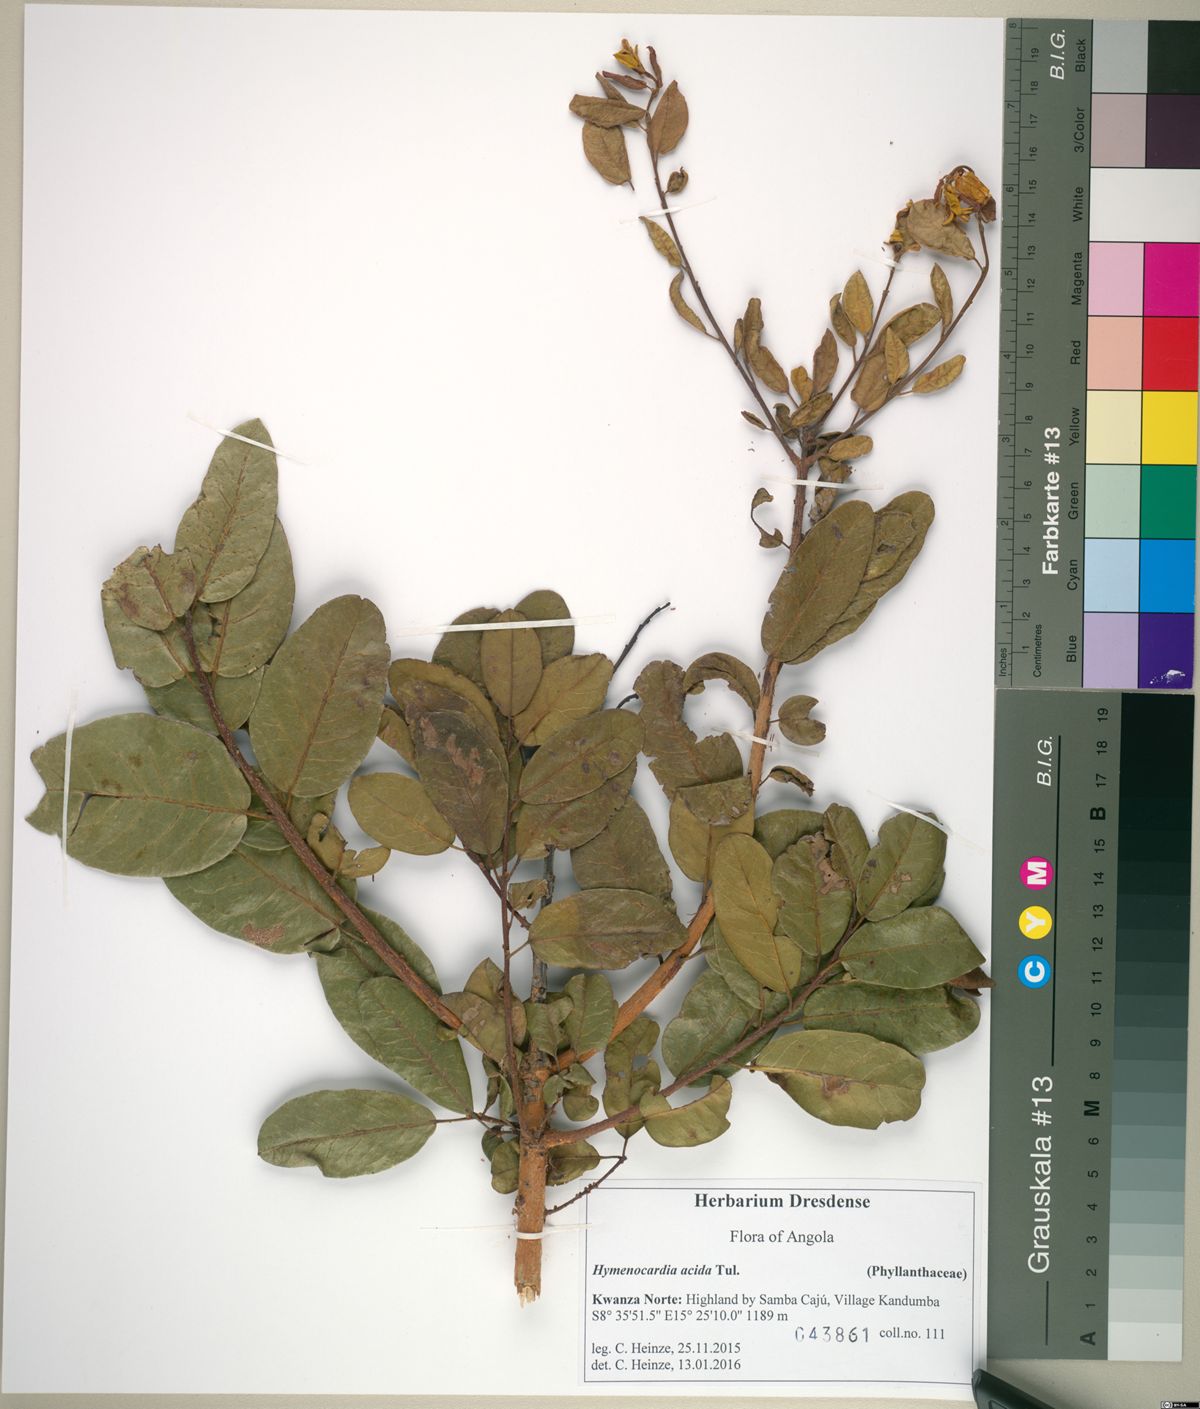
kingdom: Plantae
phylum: Tracheophyta
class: Magnoliopsida
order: Malpighiales
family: Phyllanthaceae
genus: Hymenocardia
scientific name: Hymenocardia acida
